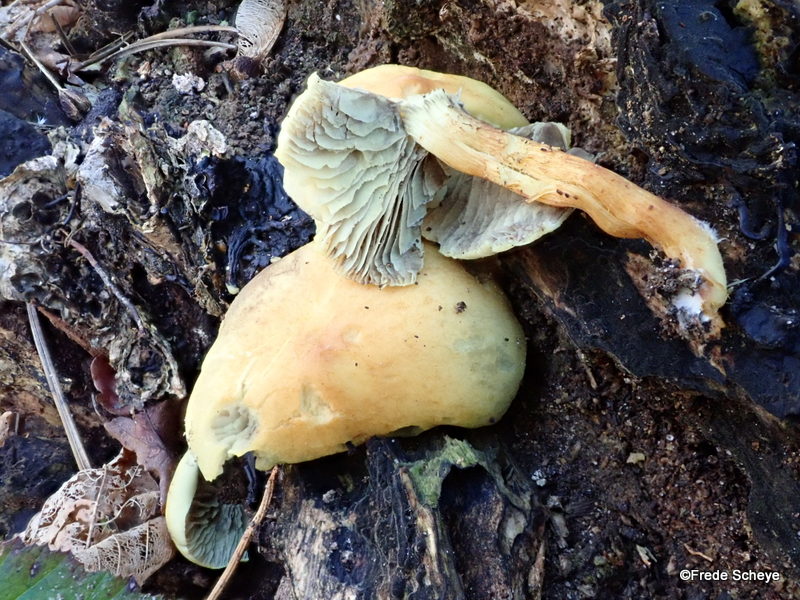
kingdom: Fungi
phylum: Basidiomycota
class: Agaricomycetes
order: Agaricales
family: Strophariaceae
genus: Hypholoma
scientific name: Hypholoma fasciculare
